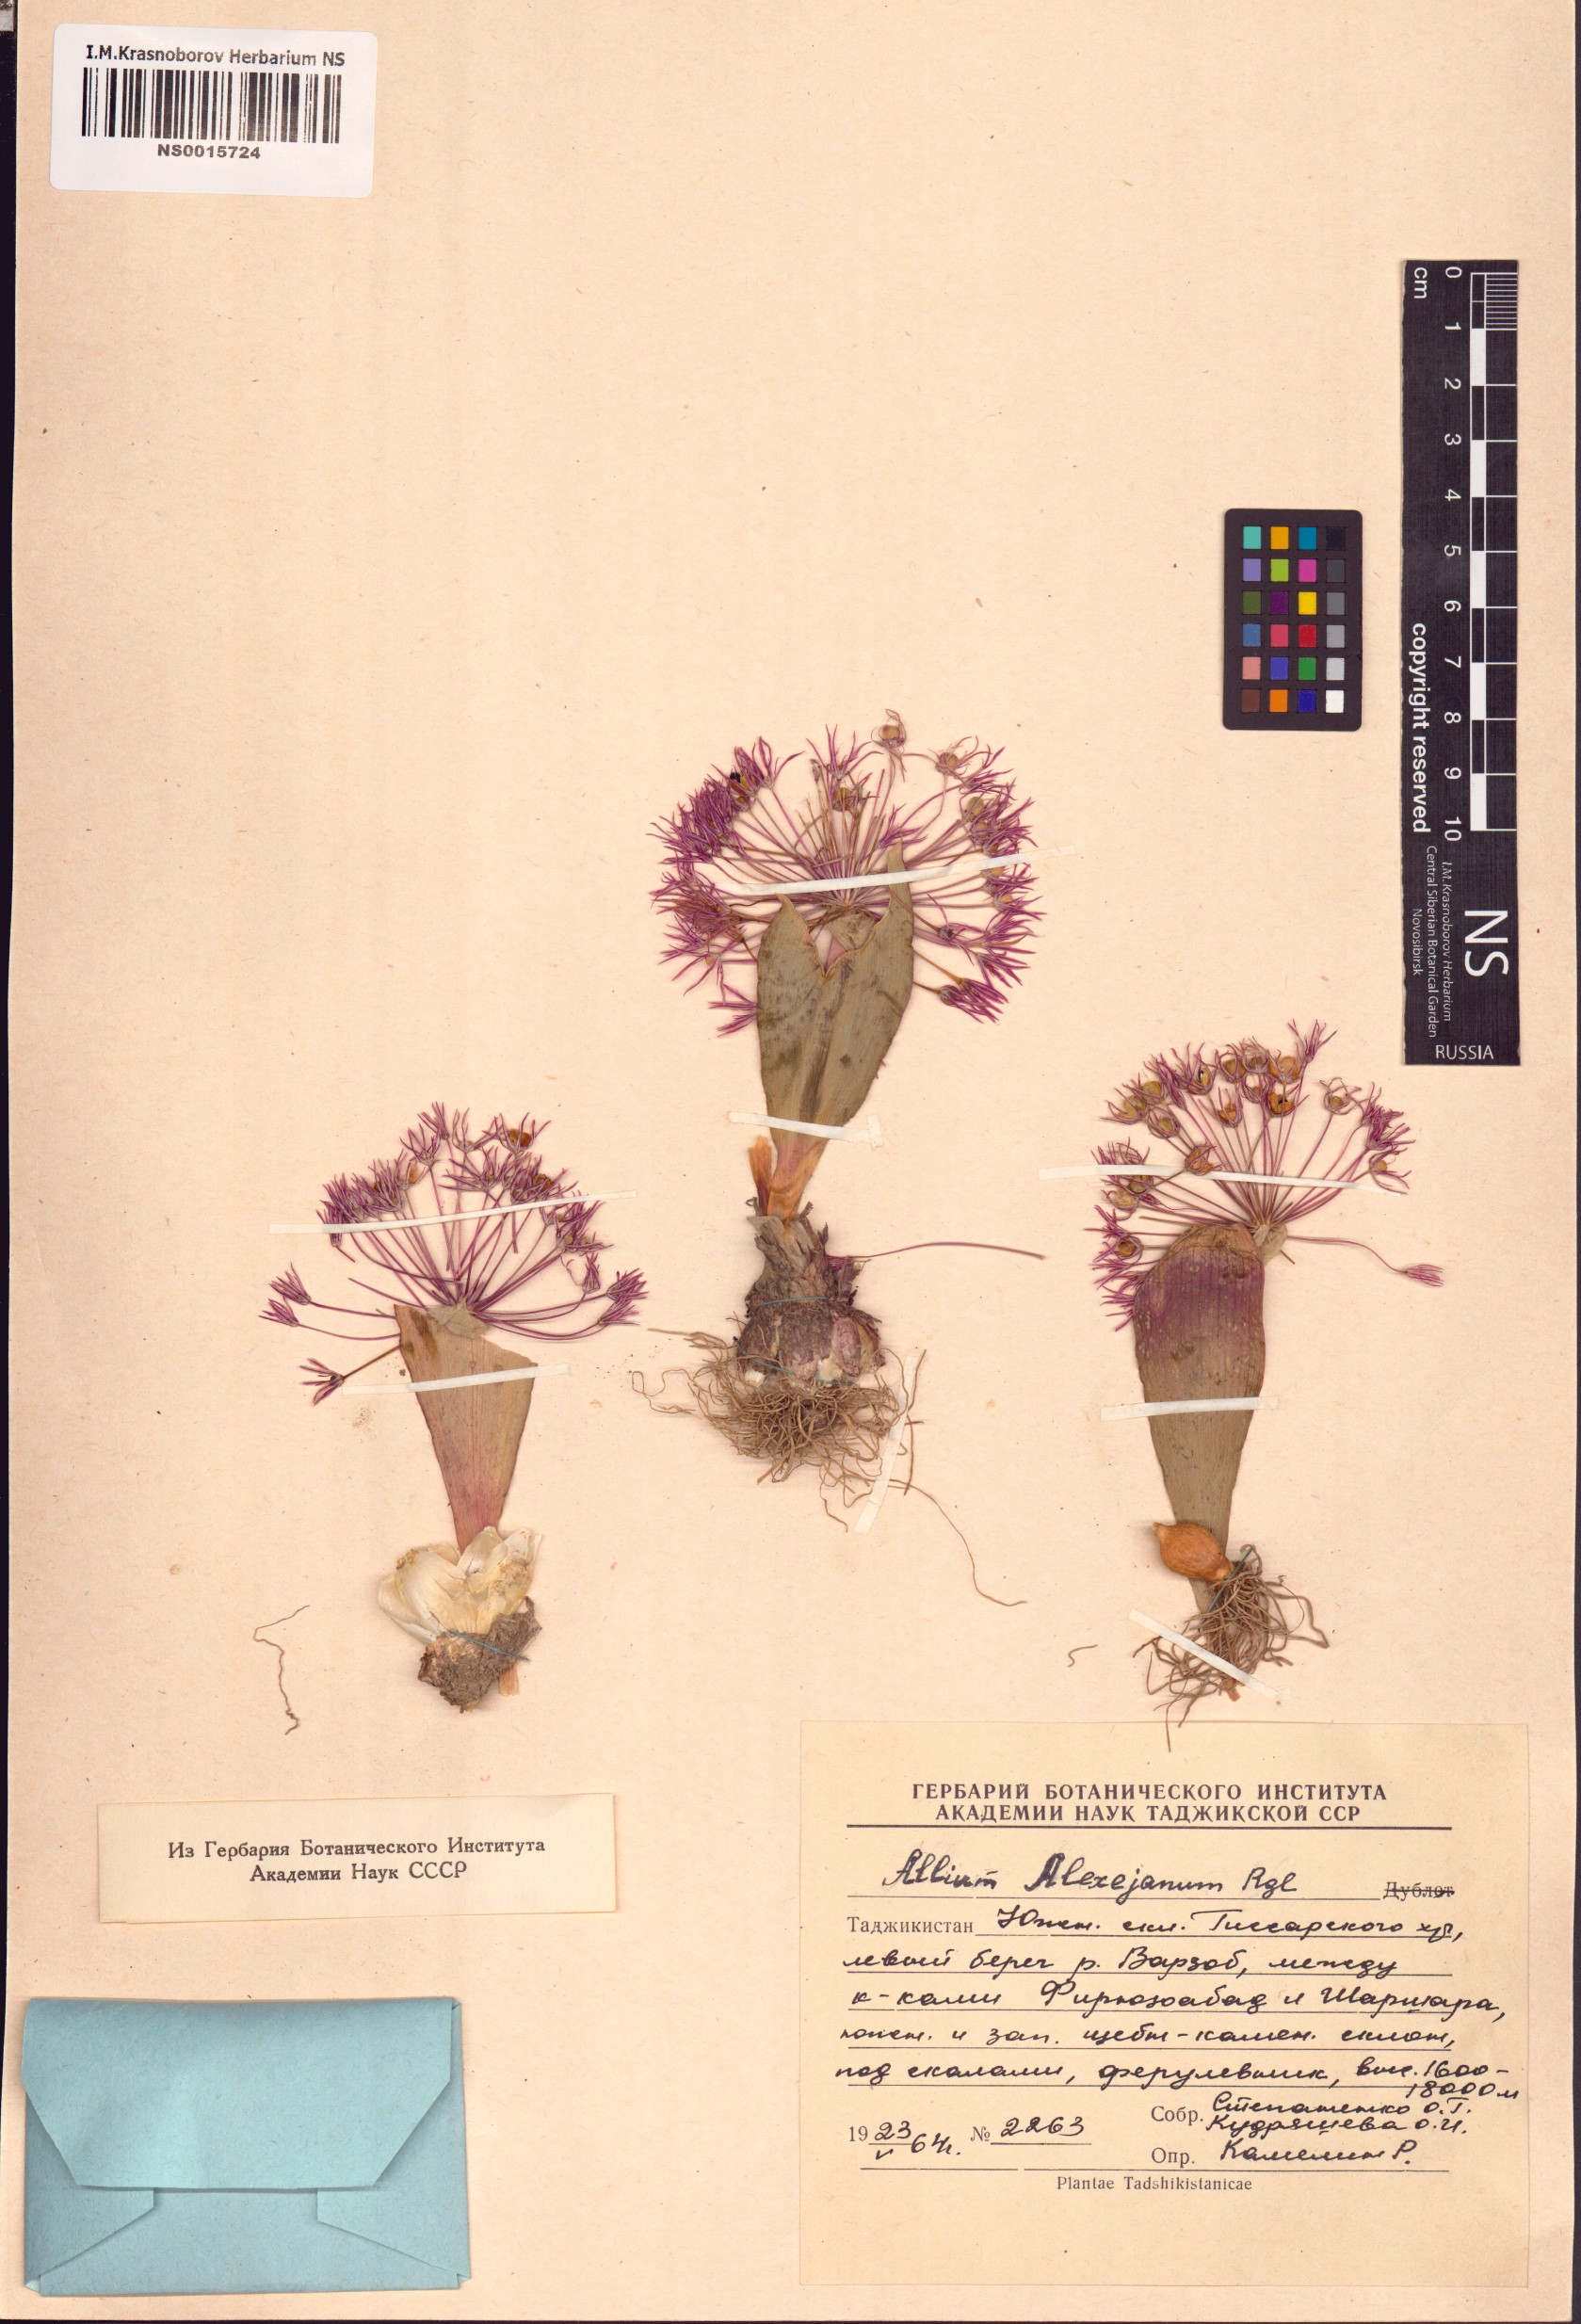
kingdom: Plantae
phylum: Tracheophyta
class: Liliopsida
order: Asparagales
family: Amaryllidaceae
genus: Allium
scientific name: Allium alexeianum
